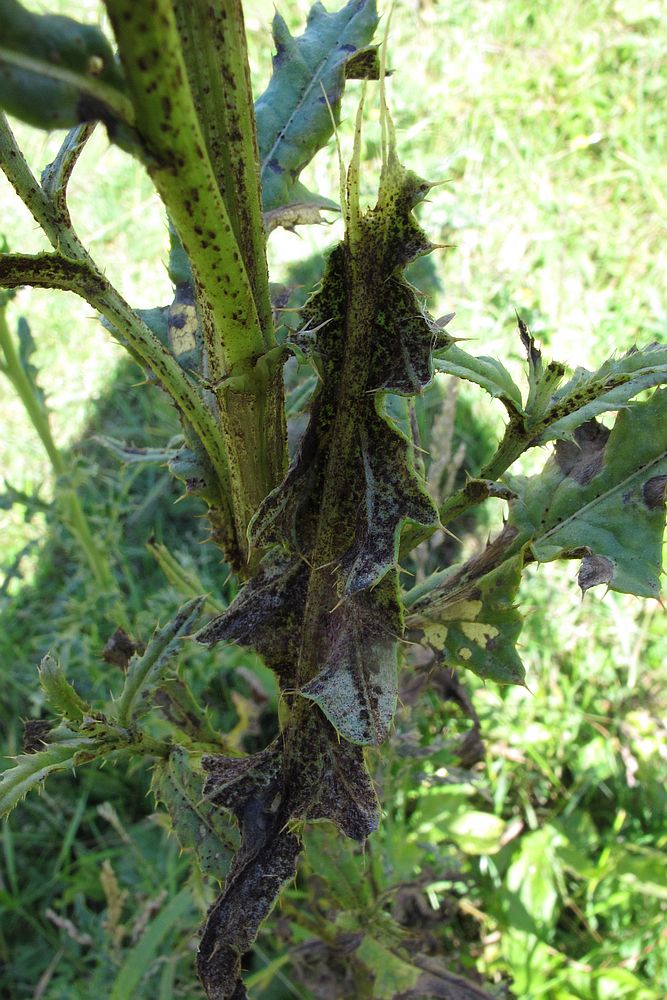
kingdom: Fungi
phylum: Basidiomycota
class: Pucciniomycetes
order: Pucciniales
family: Pucciniaceae
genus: Puccinia
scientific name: Puccinia suaveolens
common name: tidsel-tvecellerust
